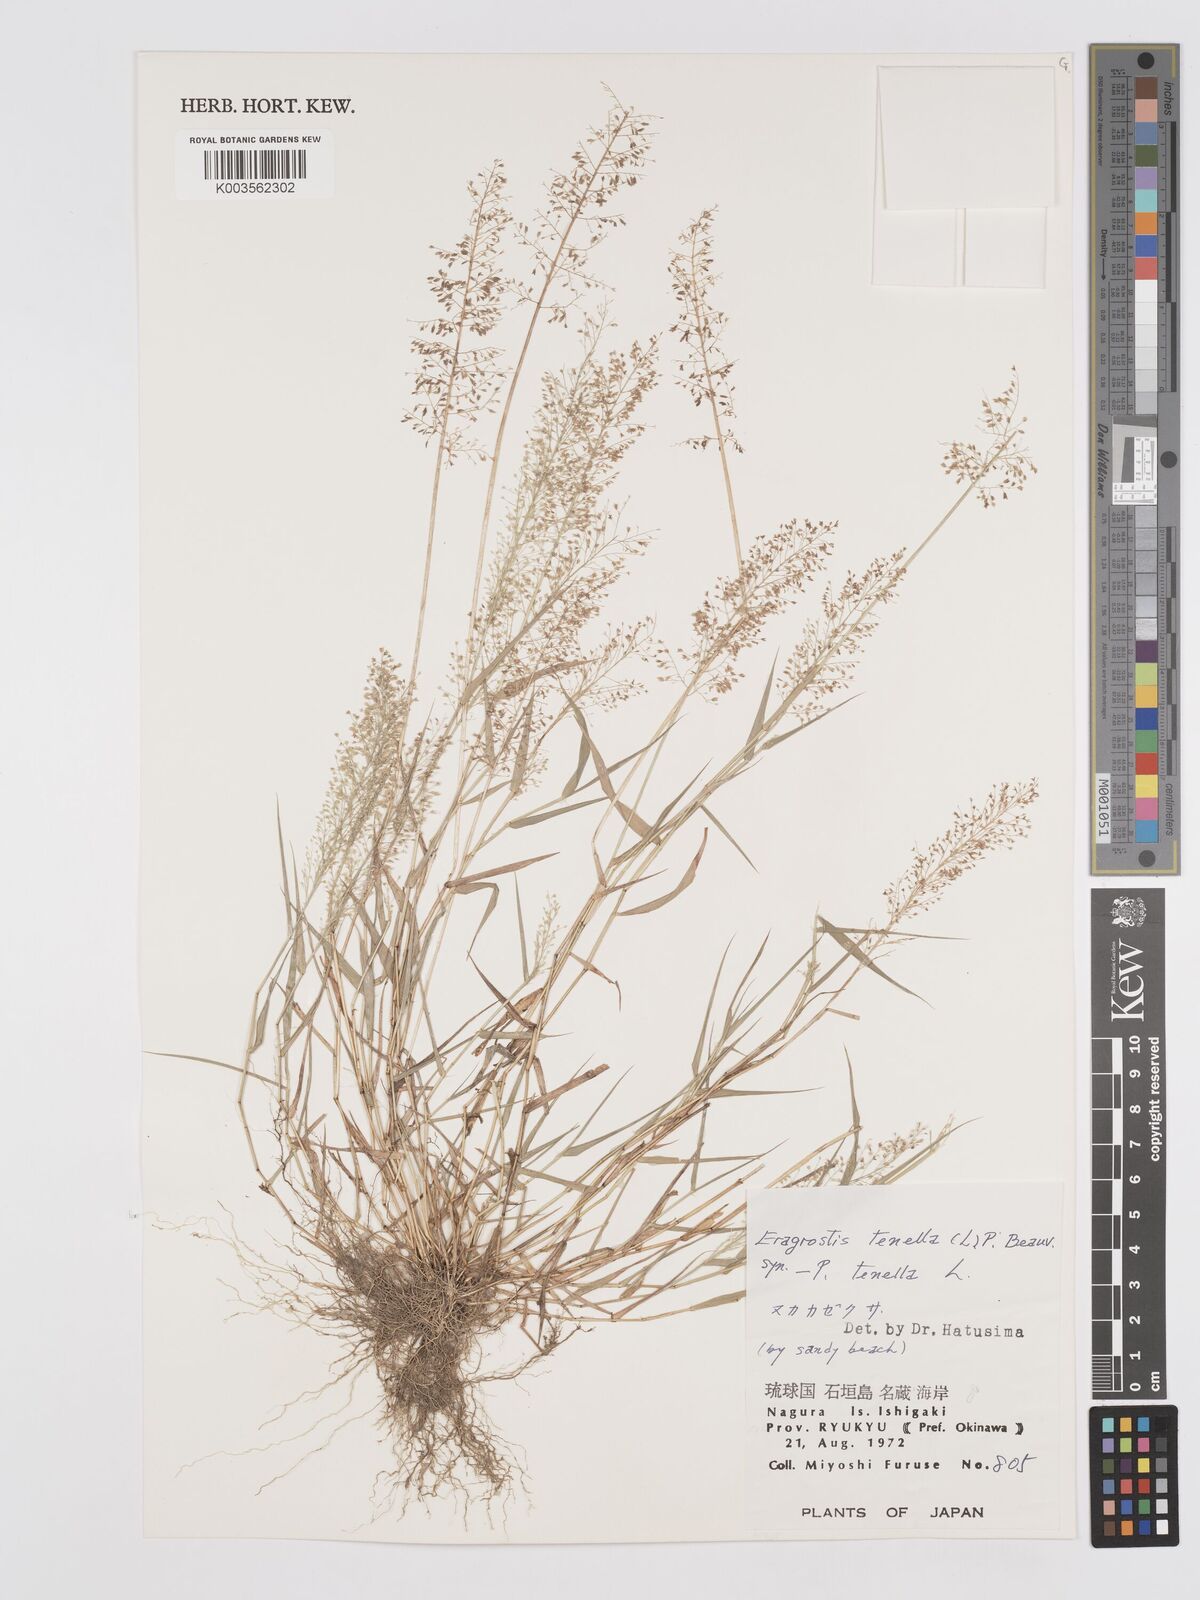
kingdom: Plantae
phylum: Tracheophyta
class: Liliopsida
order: Poales
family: Poaceae
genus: Eragrostis
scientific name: Eragrostis tenella
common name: Japanese lovegrass
